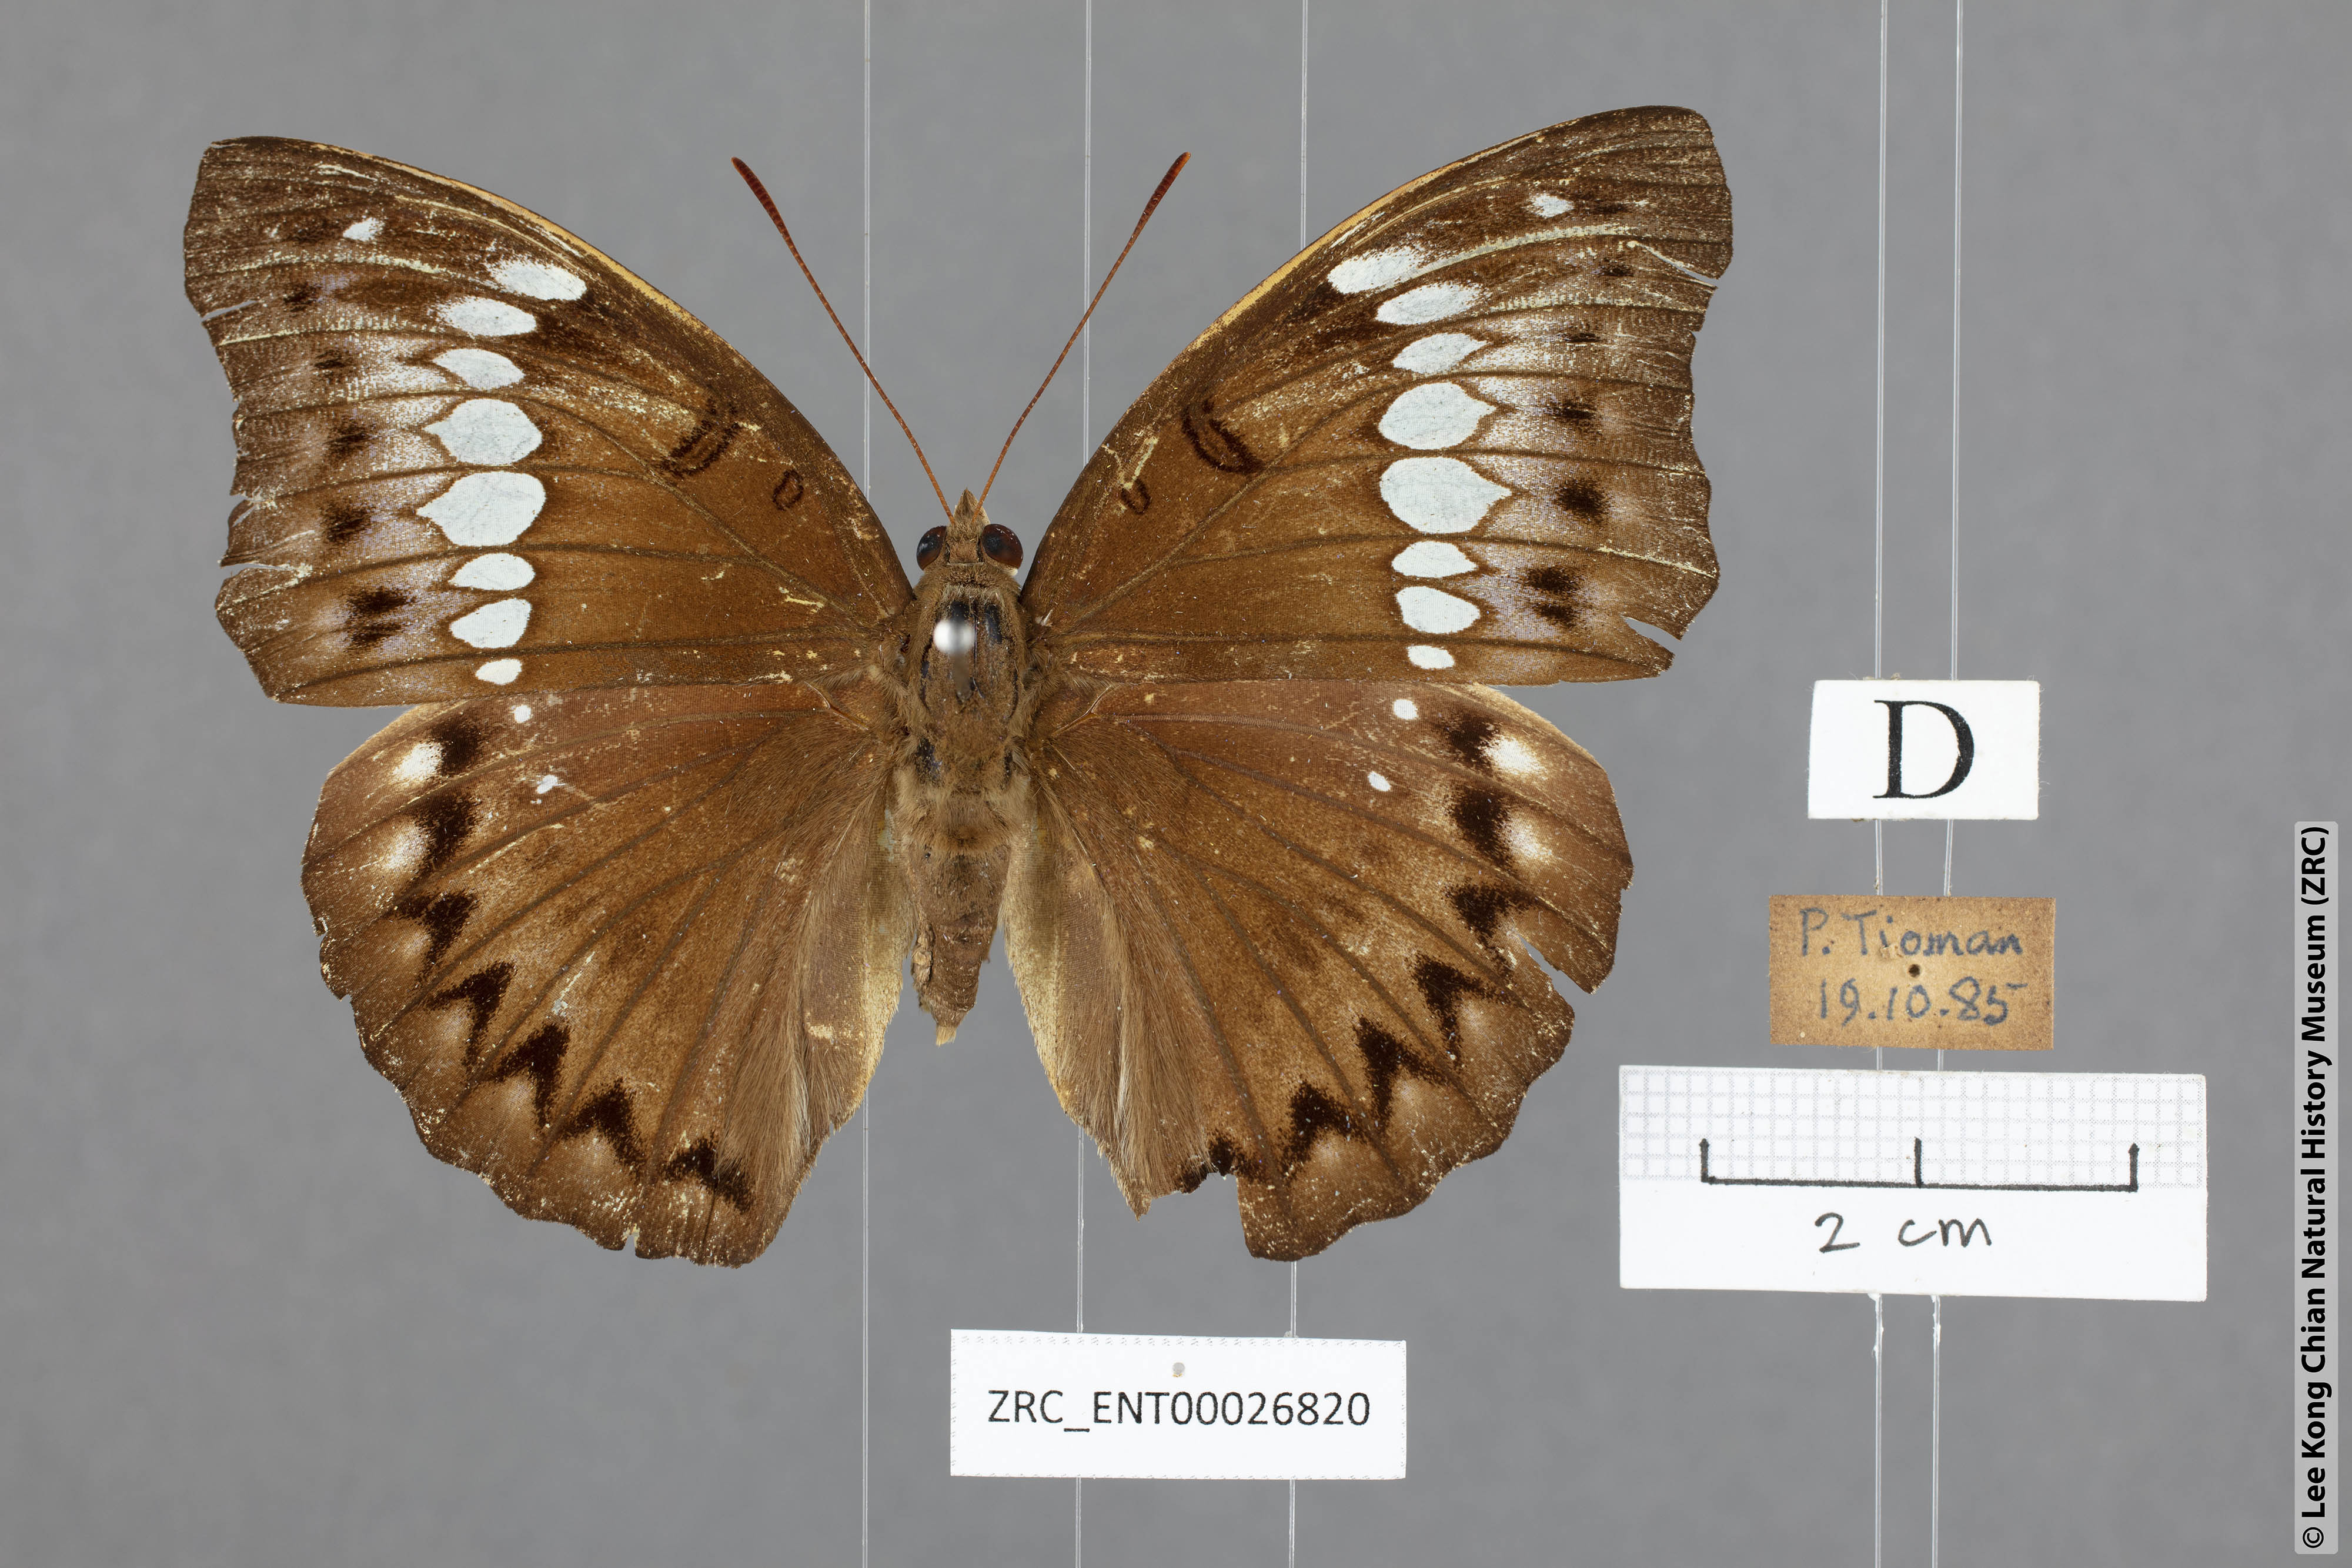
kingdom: Animalia
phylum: Arthropoda
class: Insecta
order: Lepidoptera
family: Nymphalidae
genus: Euthalia
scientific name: Euthalia Bassarona teuta
